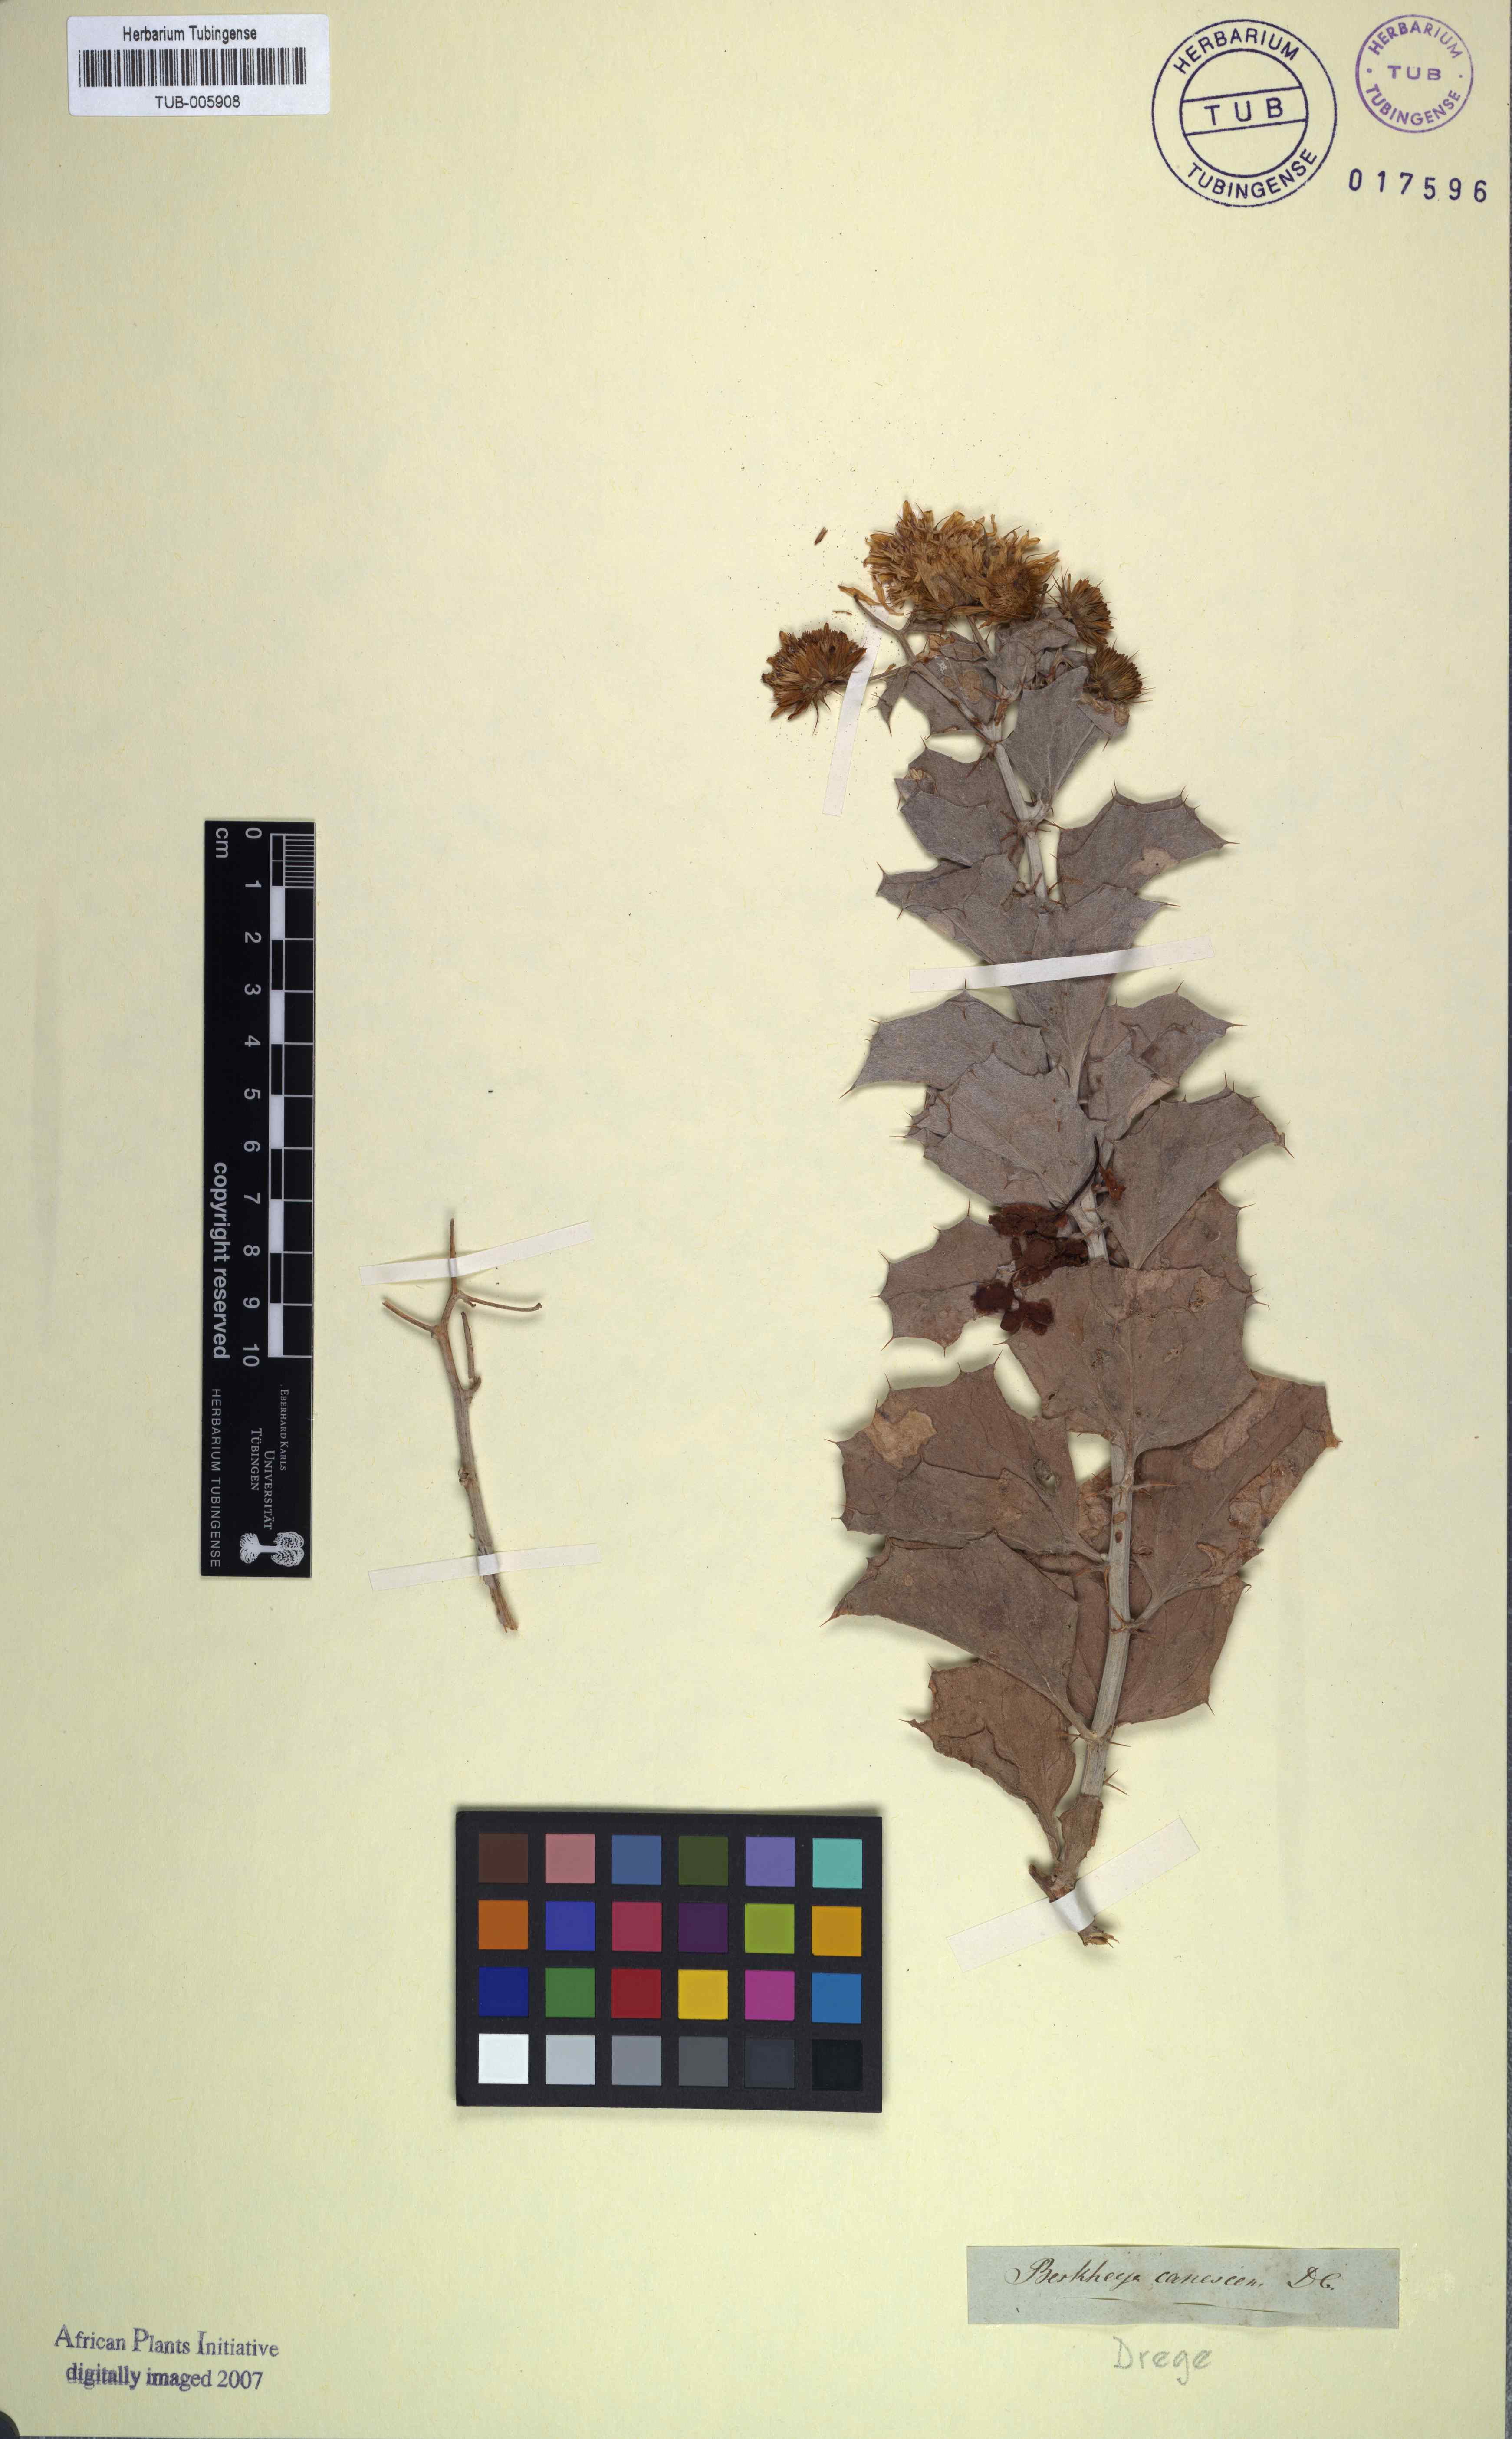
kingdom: Plantae
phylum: Tracheophyta
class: Magnoliopsida
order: Asterales
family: Asteraceae
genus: Berkheya
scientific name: Berkheya canescens
